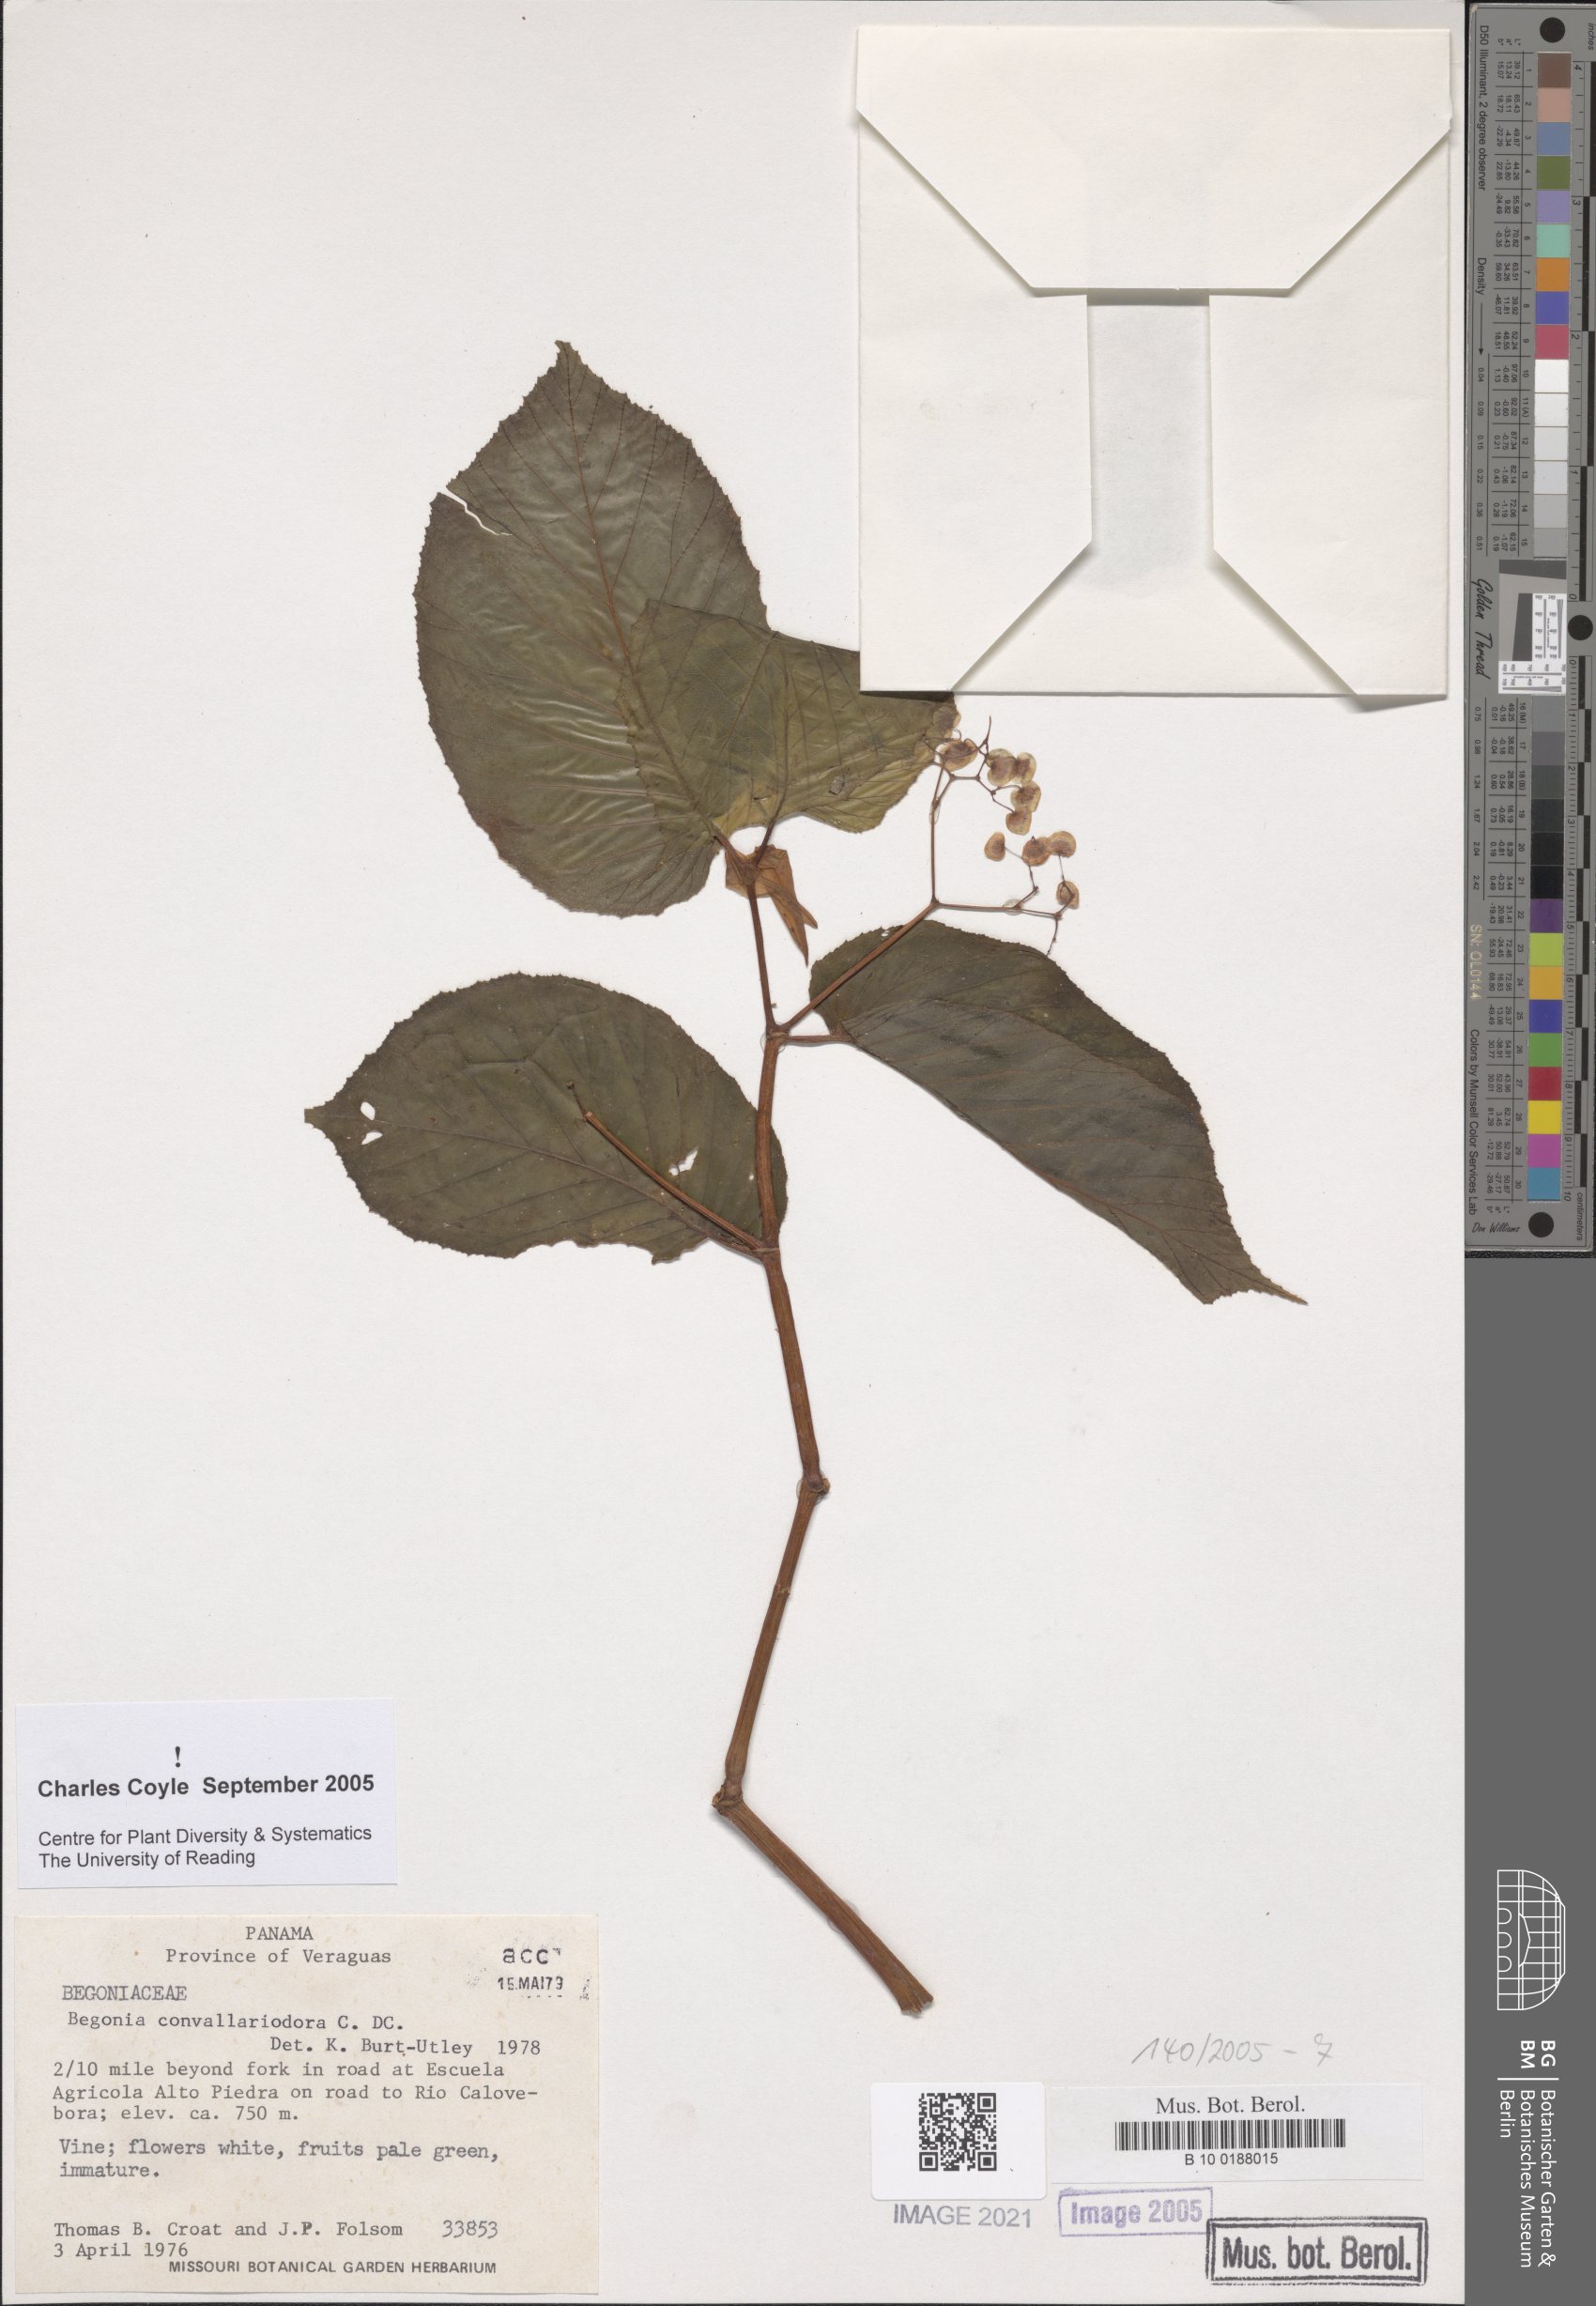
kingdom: Plantae
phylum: Tracheophyta
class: Magnoliopsida
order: Cucurbitales
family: Begoniaceae
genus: Begonia
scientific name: Begonia convallariodora
